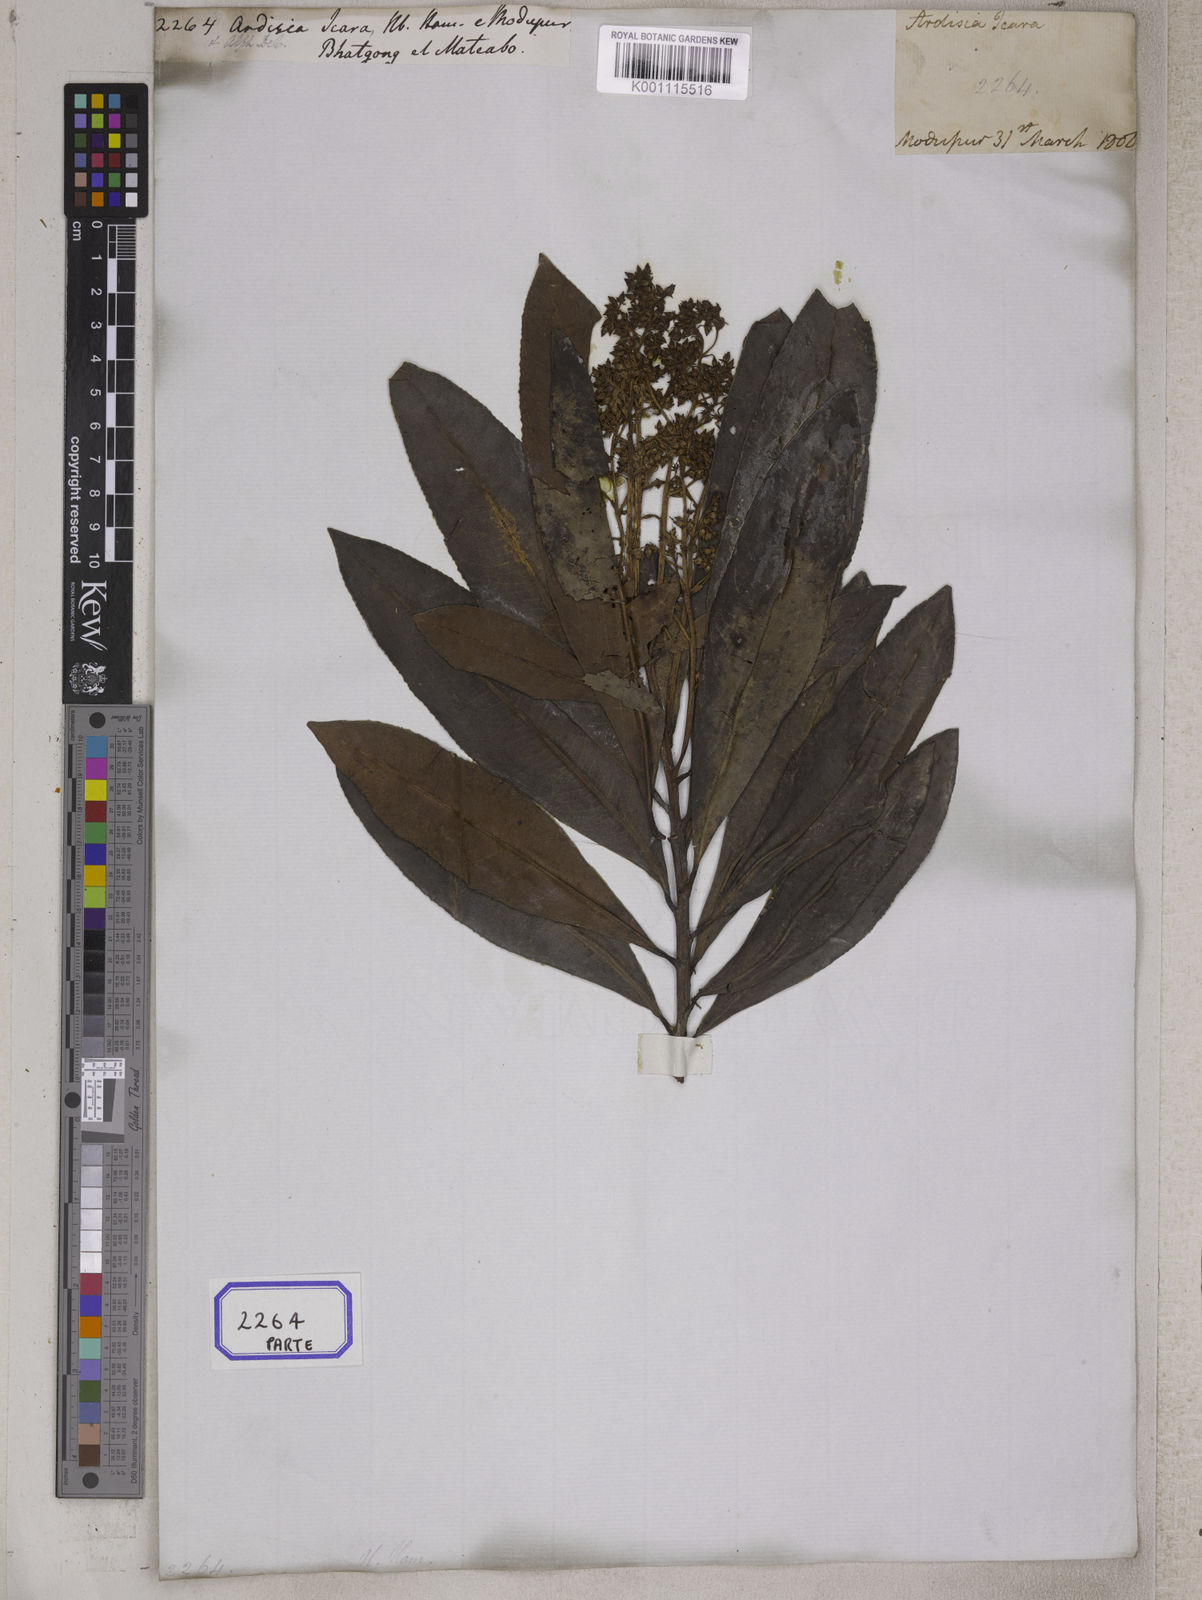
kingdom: Plantae
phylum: Tracheophyta
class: Magnoliopsida
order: Ericales
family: Primulaceae
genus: Ardisia
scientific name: Ardisia
